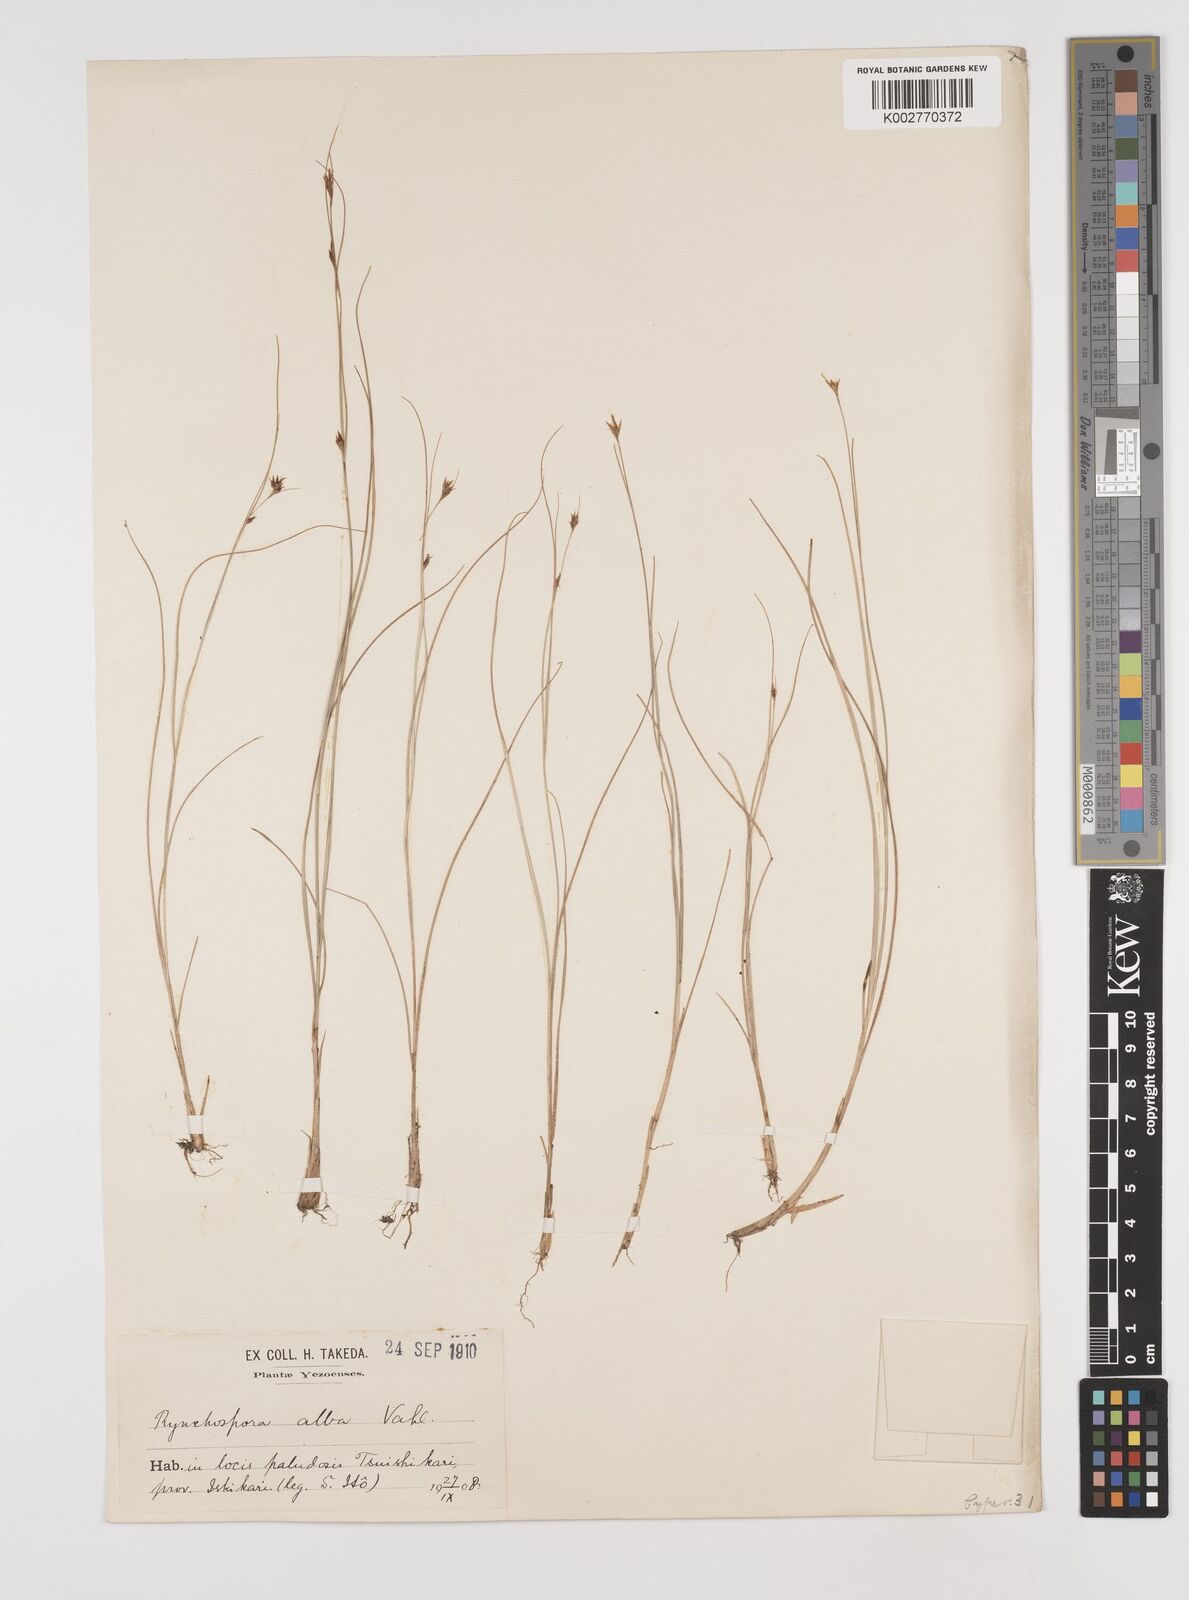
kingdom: Plantae
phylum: Tracheophyta
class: Liliopsida
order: Poales
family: Cyperaceae
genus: Rhynchospora
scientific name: Rhynchospora alba
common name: White beak-sedge
